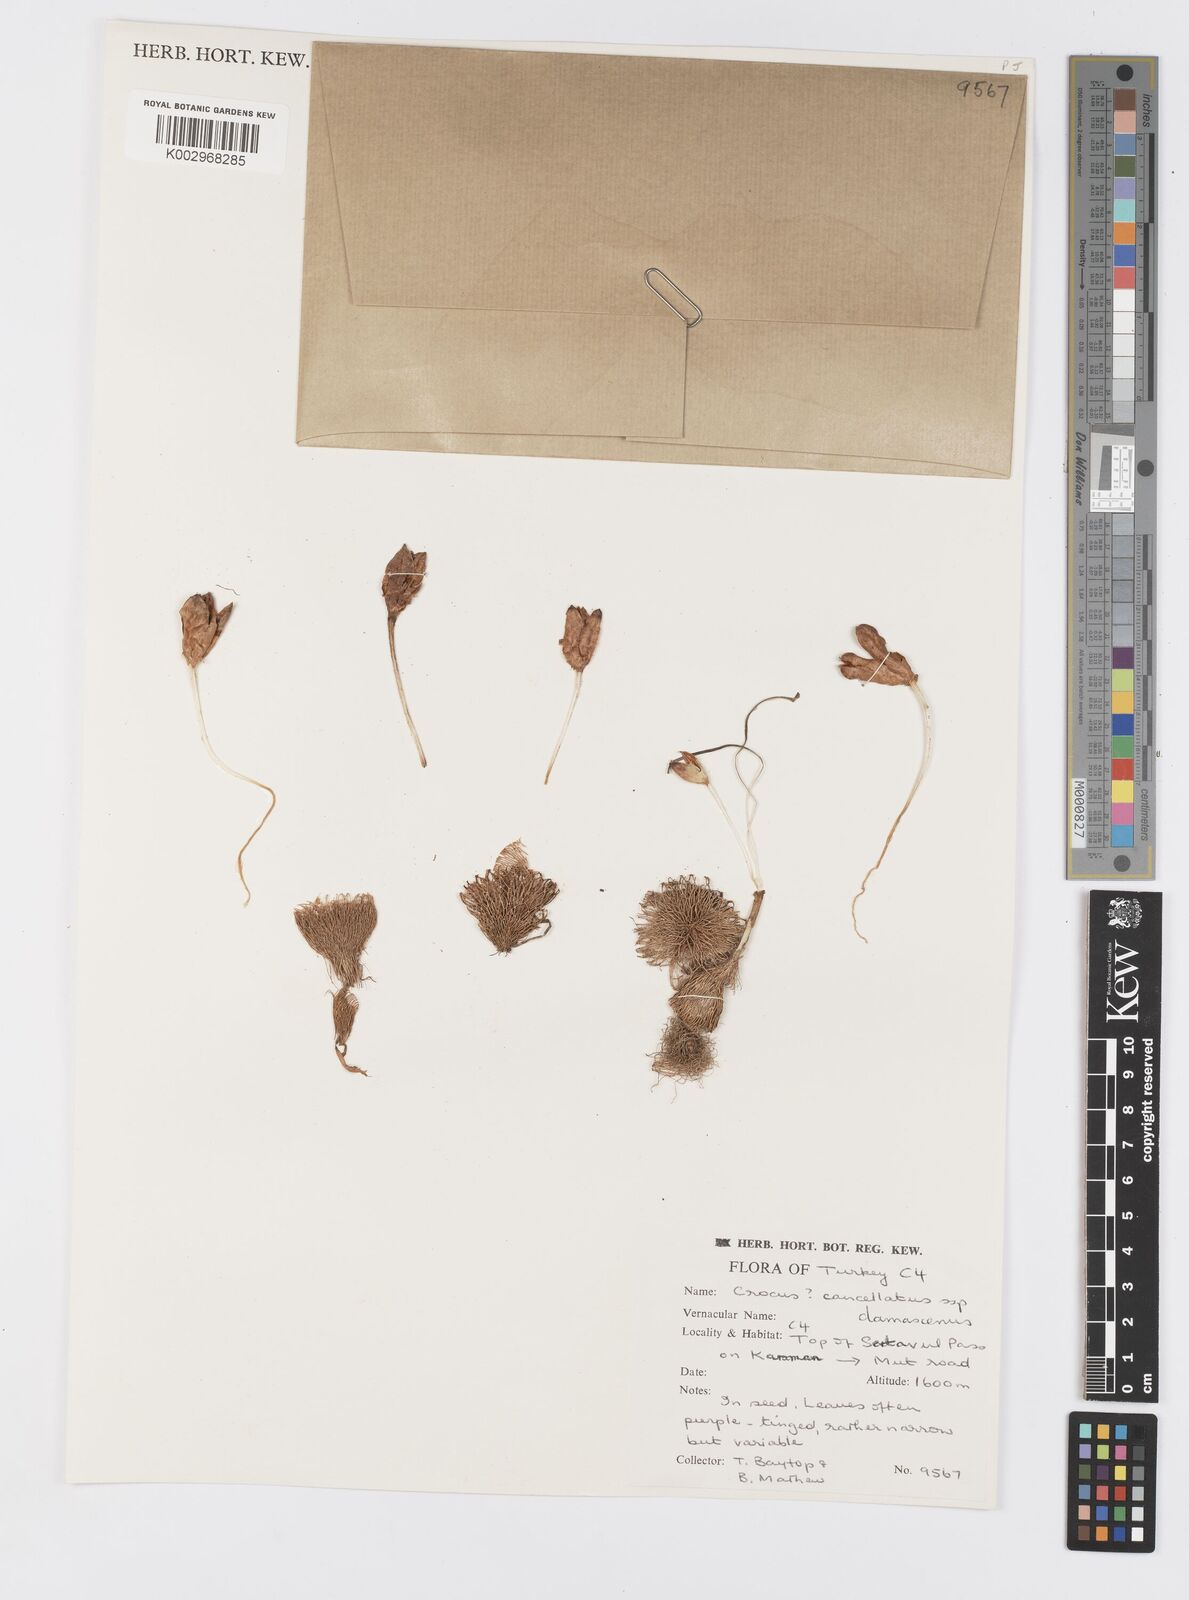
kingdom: Plantae
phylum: Tracheophyta
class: Liliopsida
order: Asparagales
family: Iridaceae
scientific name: Iridaceae
